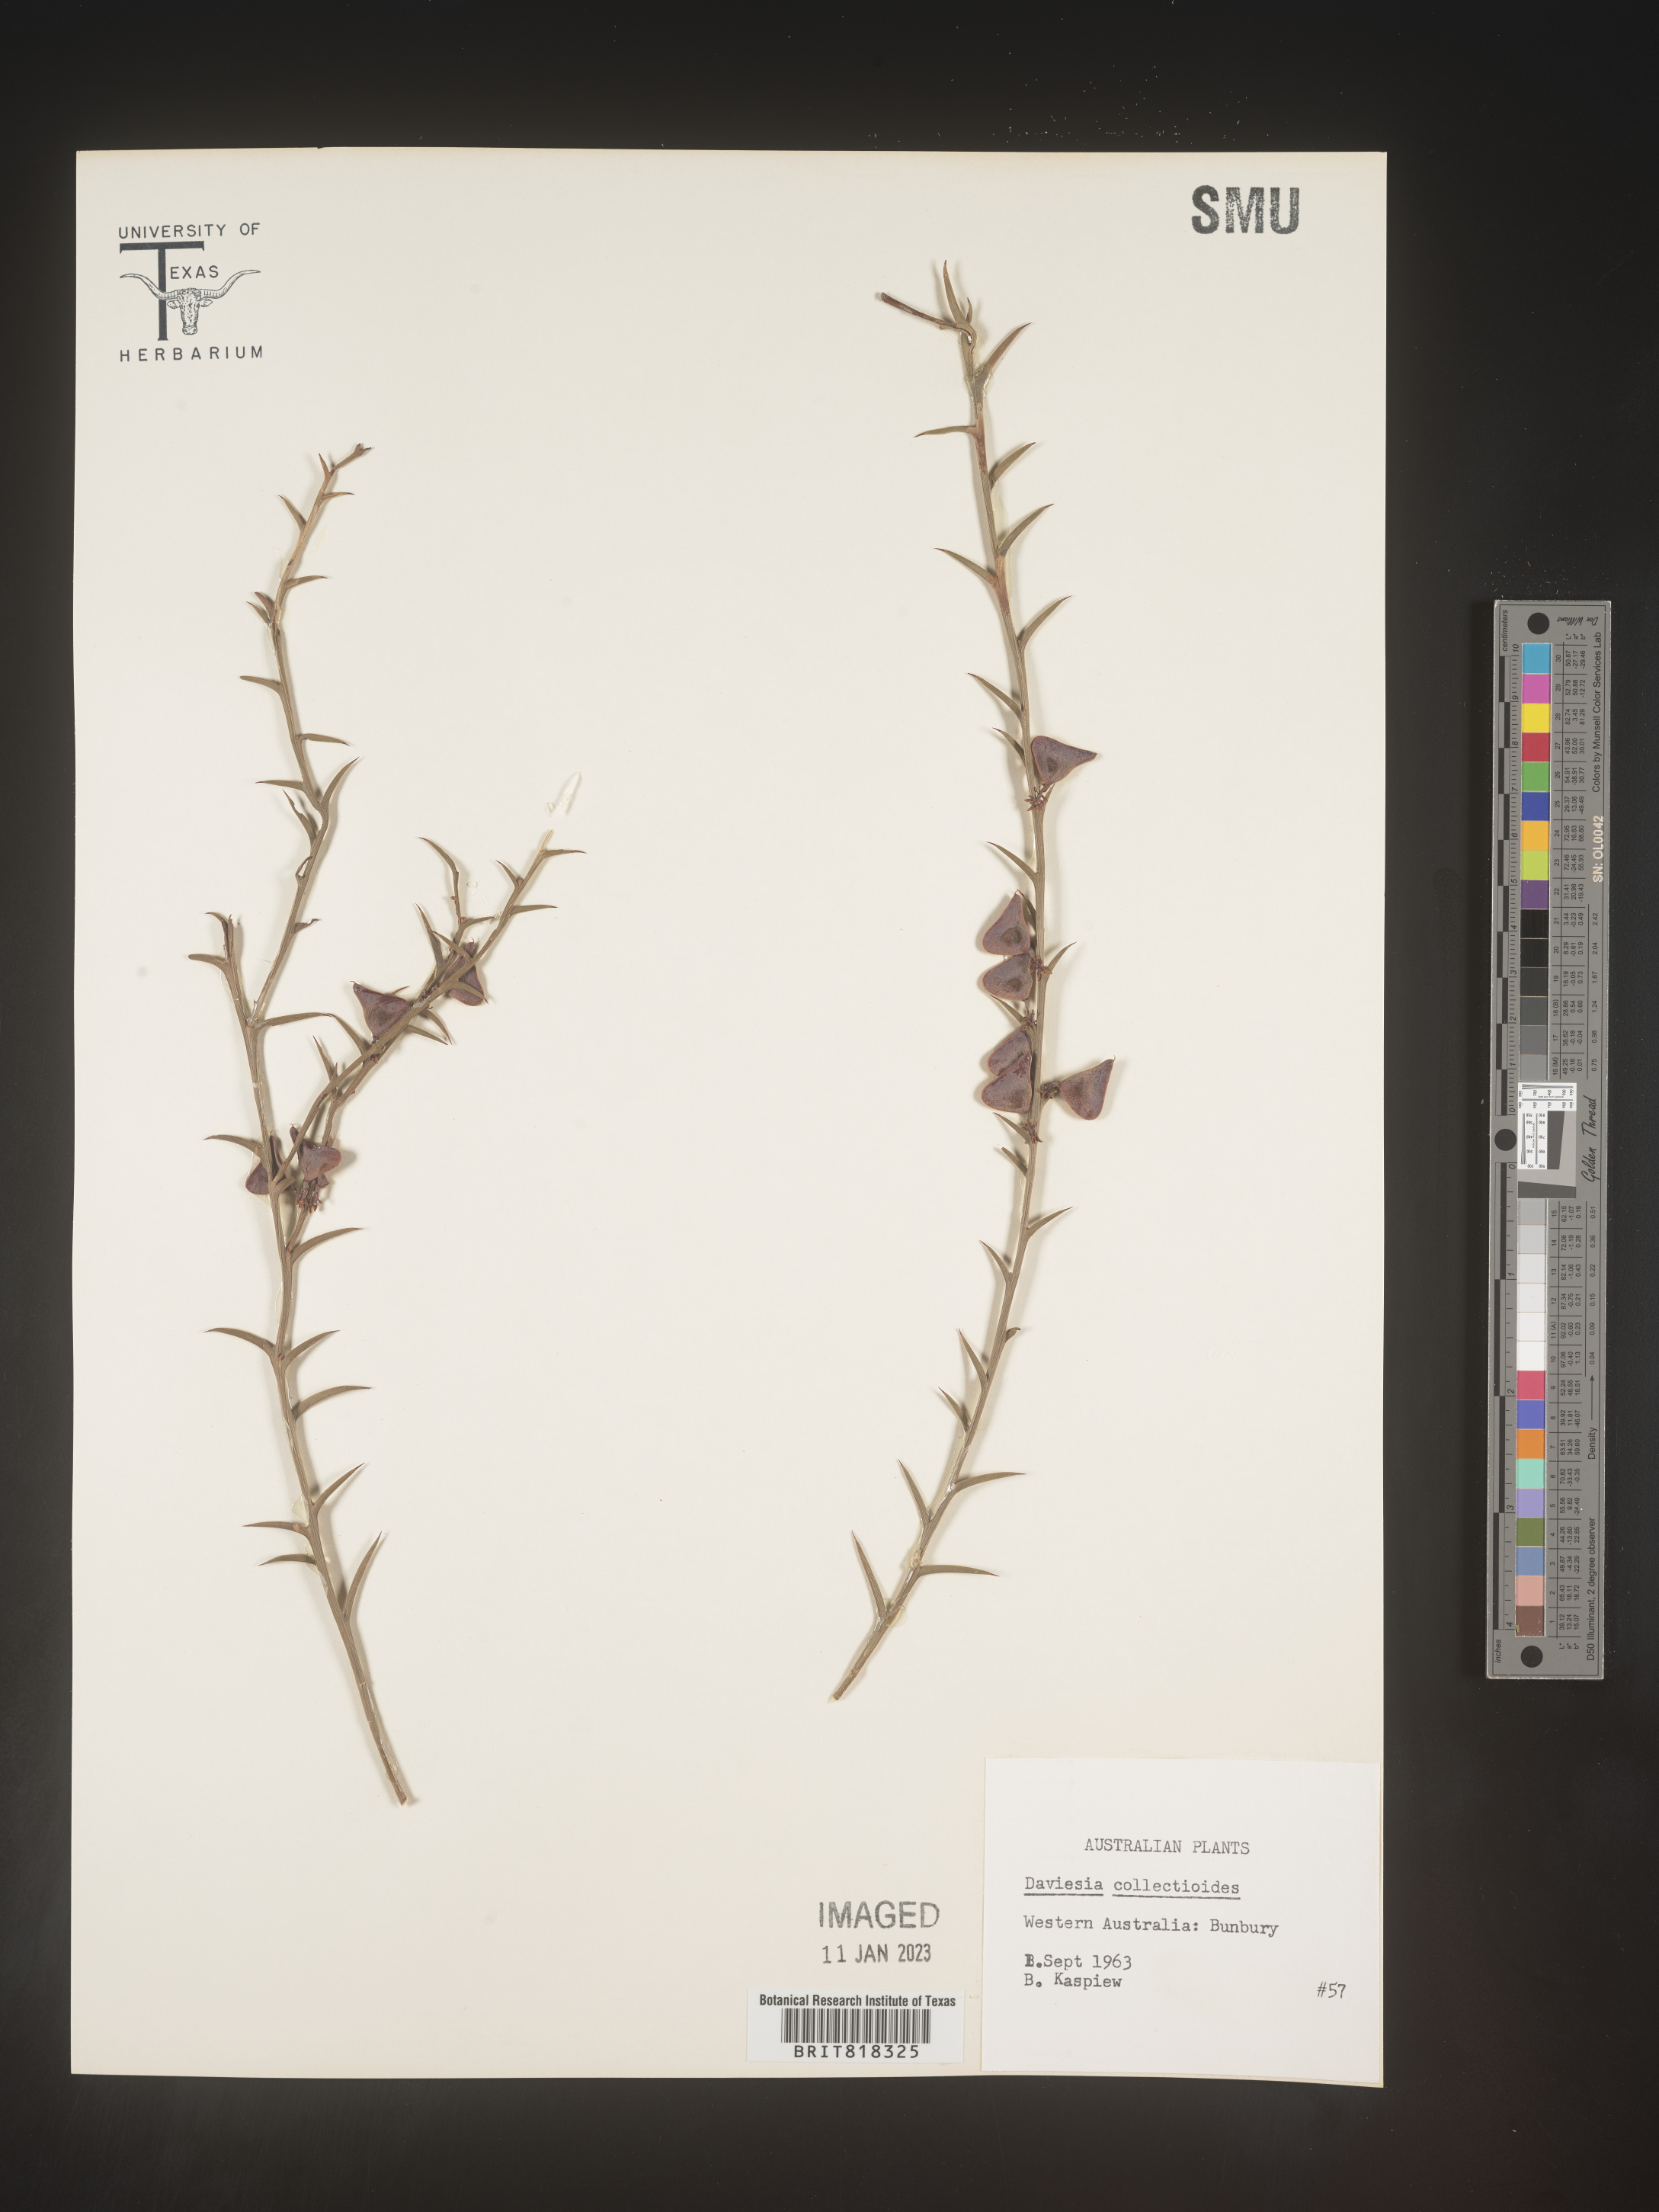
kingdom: Plantae
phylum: Tracheophyta
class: Magnoliopsida
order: Fabales
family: Fabaceae
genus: Daviesia
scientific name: Daviesia
